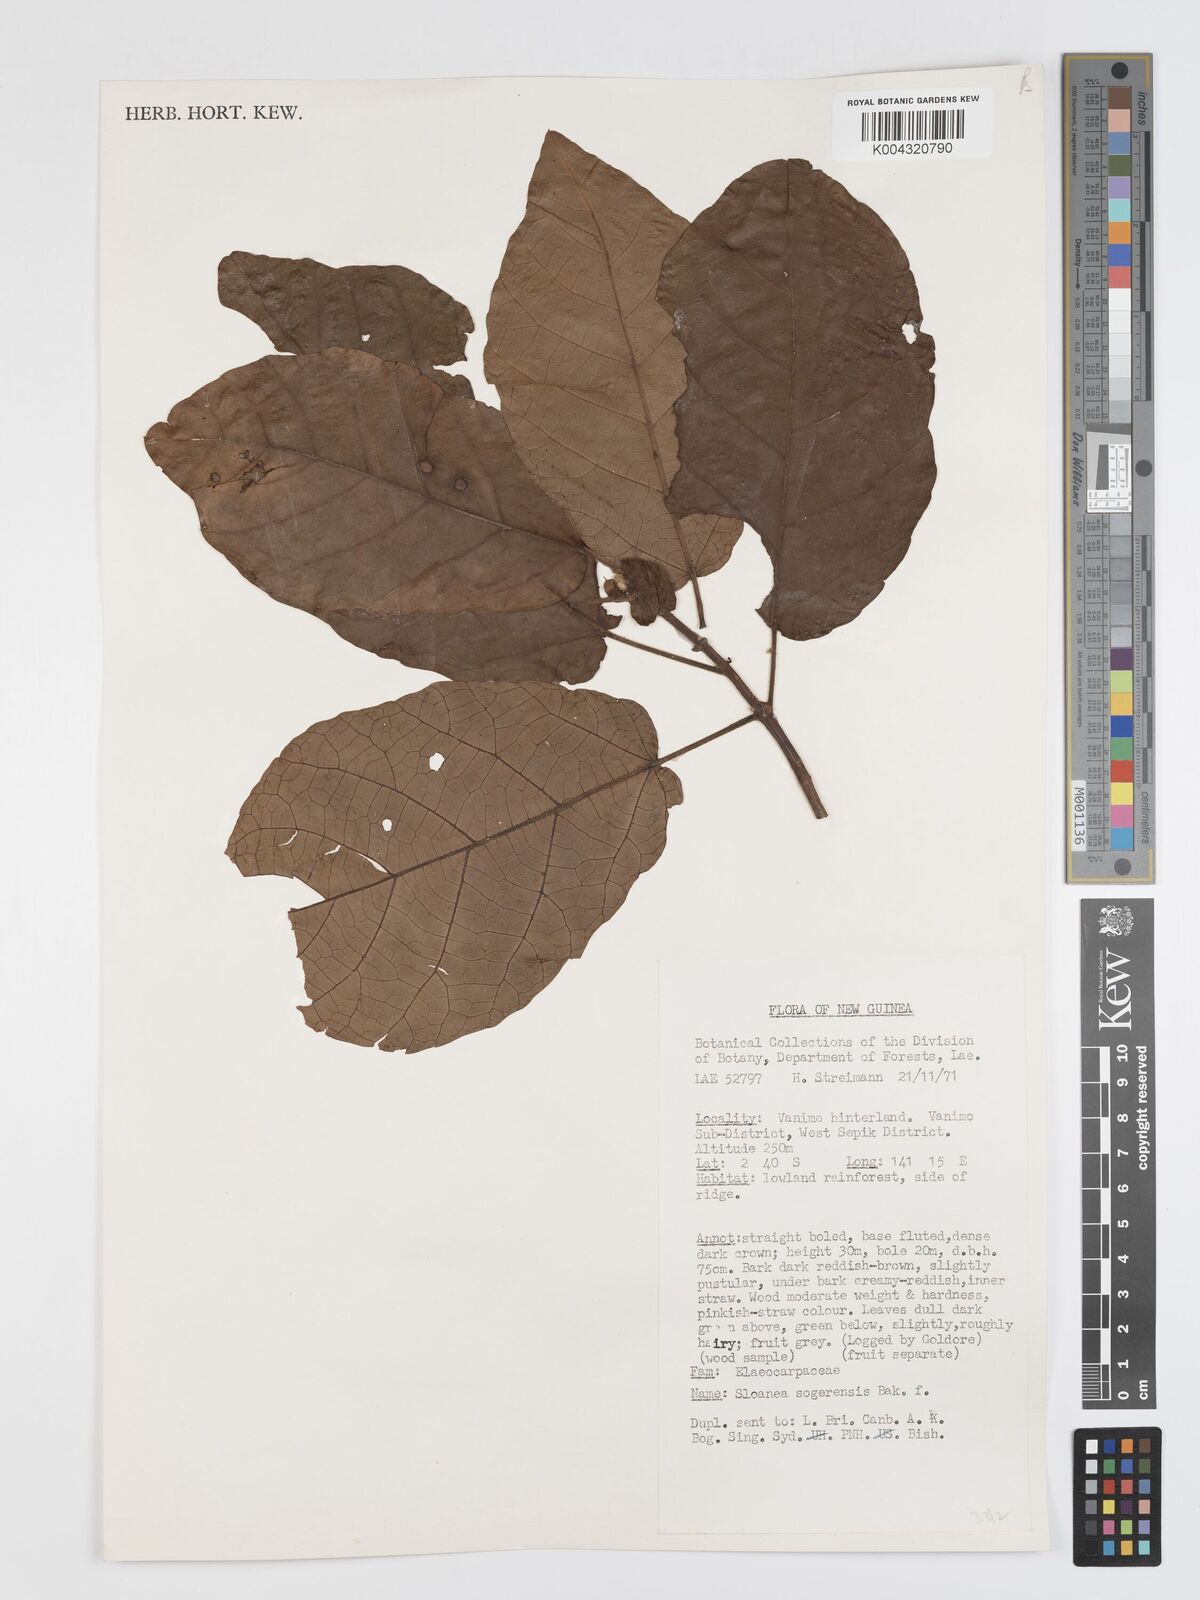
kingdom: Plantae
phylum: Tracheophyta
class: Magnoliopsida
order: Oxalidales
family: Elaeocarpaceae
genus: Sloanea
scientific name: Sloanea sogerensis
